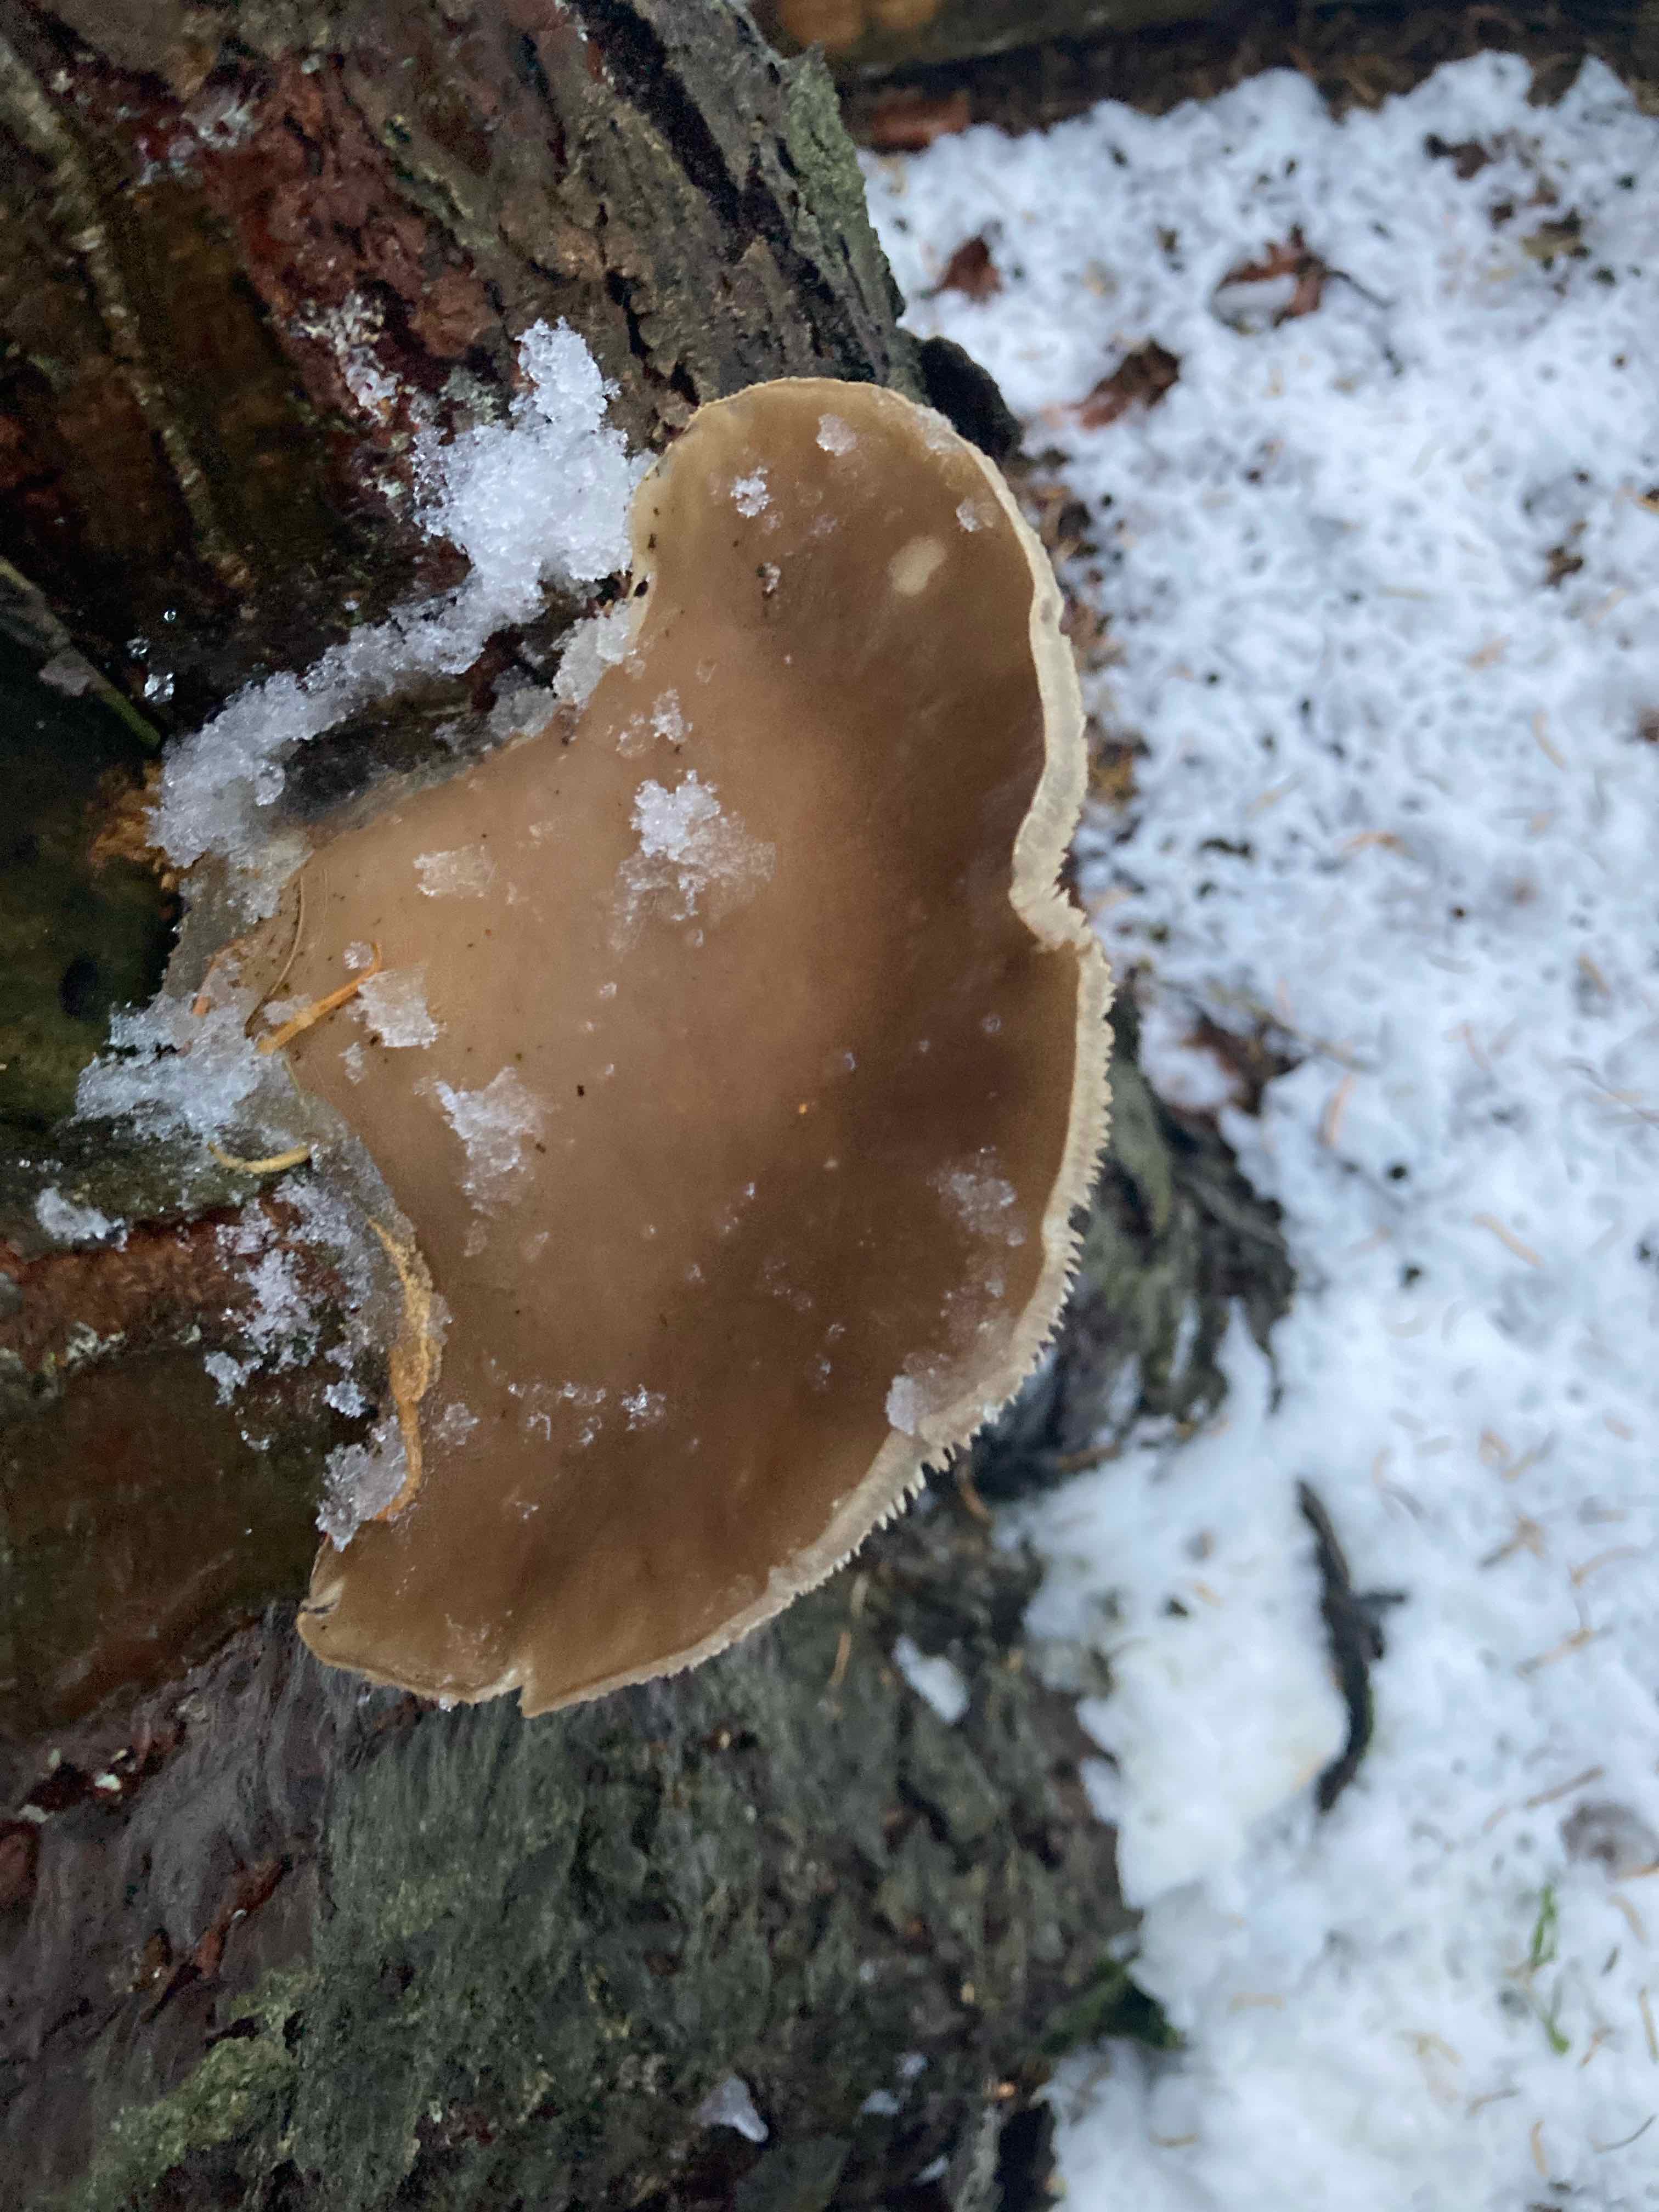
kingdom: Fungi
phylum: Basidiomycota
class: Agaricomycetes
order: Agaricales
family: Pleurotaceae
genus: Pleurotus
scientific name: Pleurotus ostreatus
